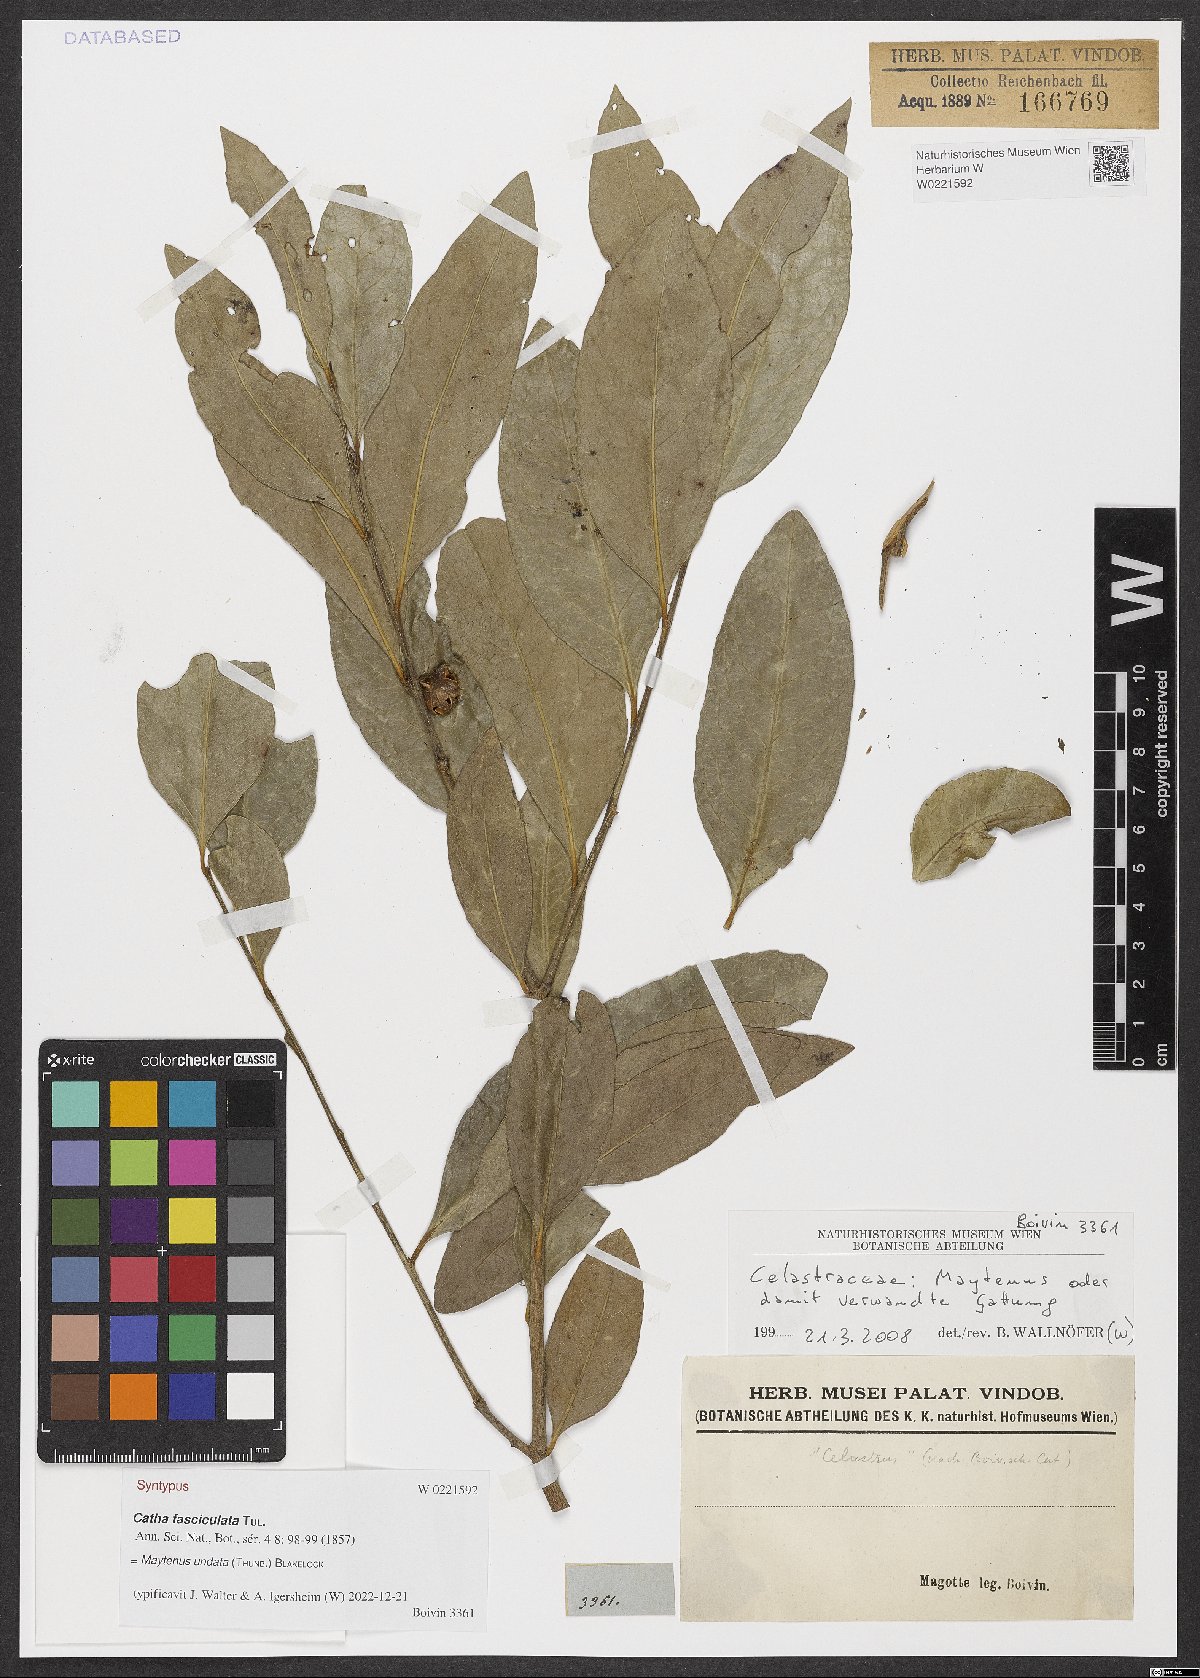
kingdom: Plantae
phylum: Tracheophyta
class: Magnoliopsida
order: Celastrales
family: Celastraceae
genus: Gymnosporia
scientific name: Gymnosporia undata
